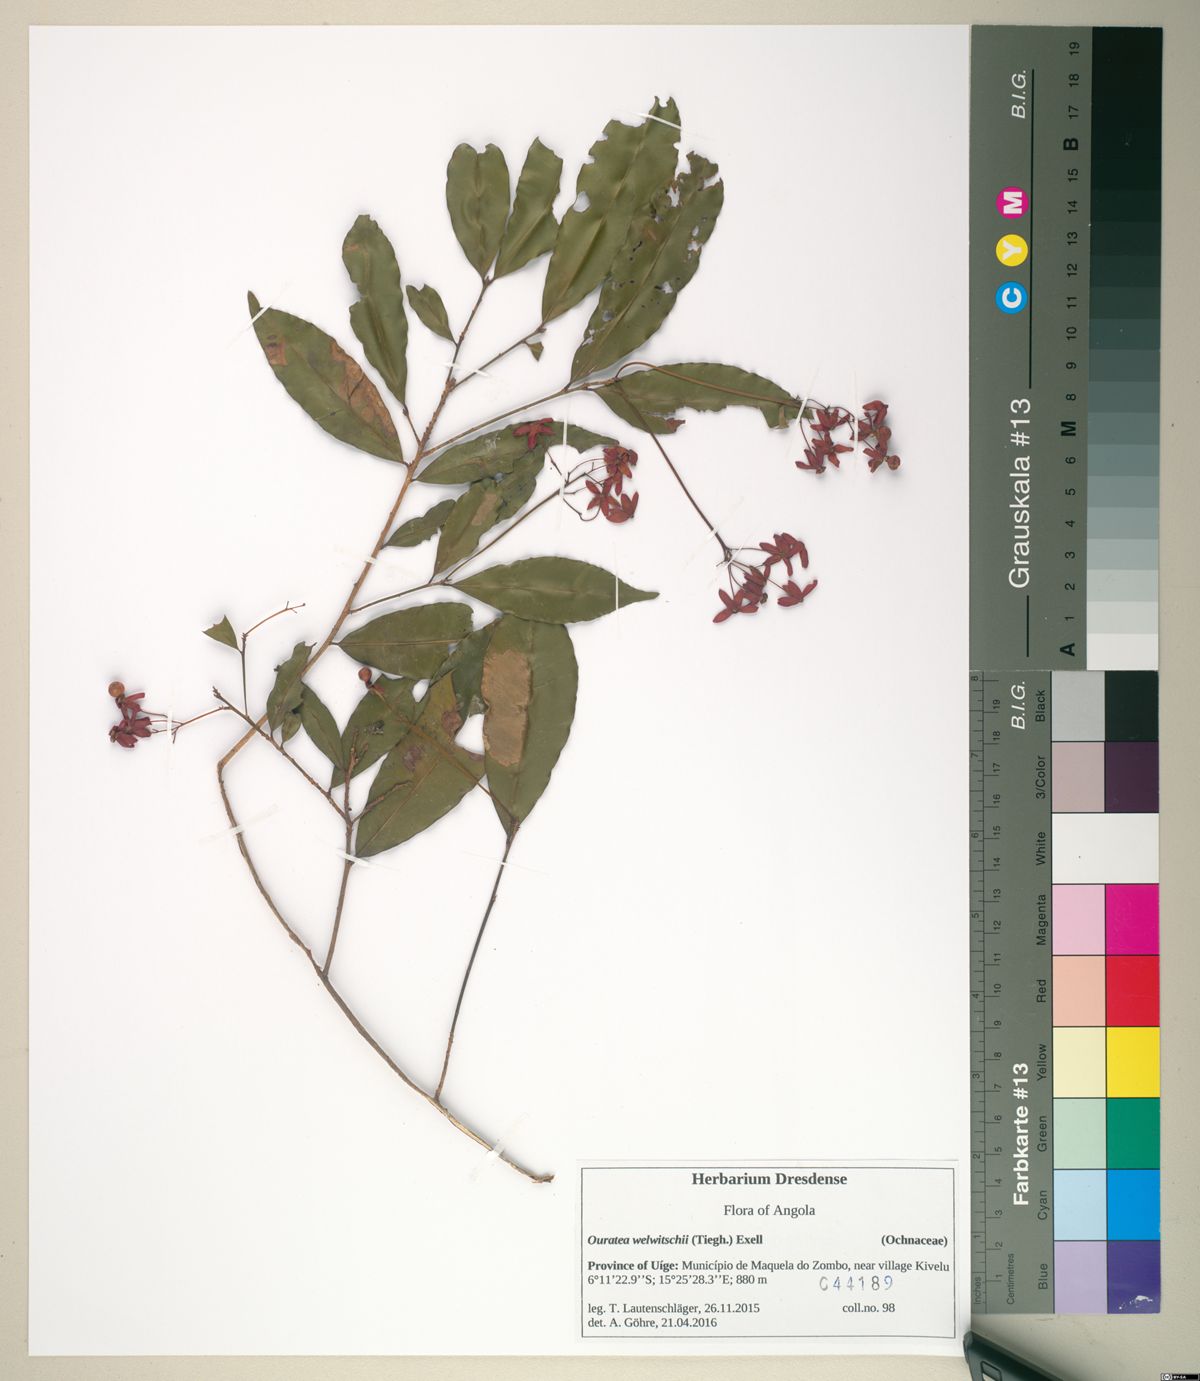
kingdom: Plantae
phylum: Tracheophyta
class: Magnoliopsida
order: Malpighiales
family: Ochnaceae
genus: Rhabdophyllum
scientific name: Rhabdophyllum welwitschii
